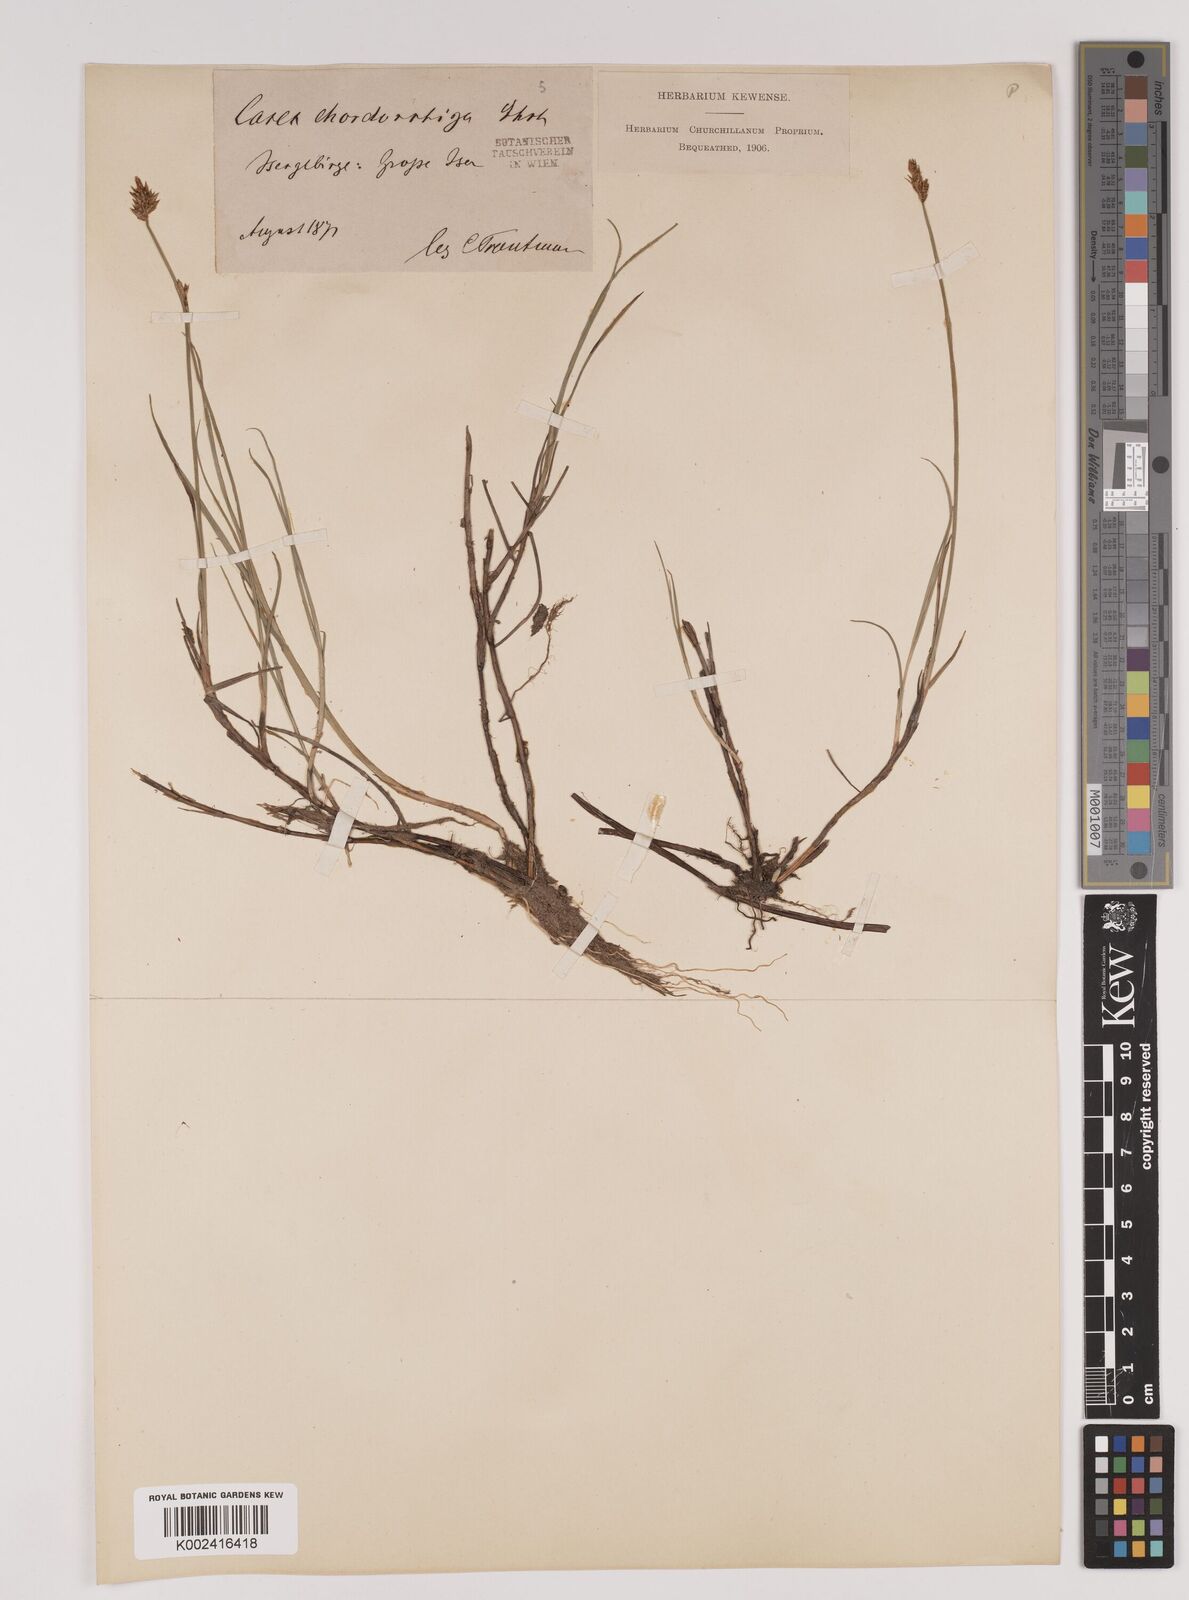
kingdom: Plantae
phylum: Tracheophyta
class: Liliopsida
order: Poales
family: Cyperaceae
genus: Carex
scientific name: Carex chordorrhiza
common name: String sedge
